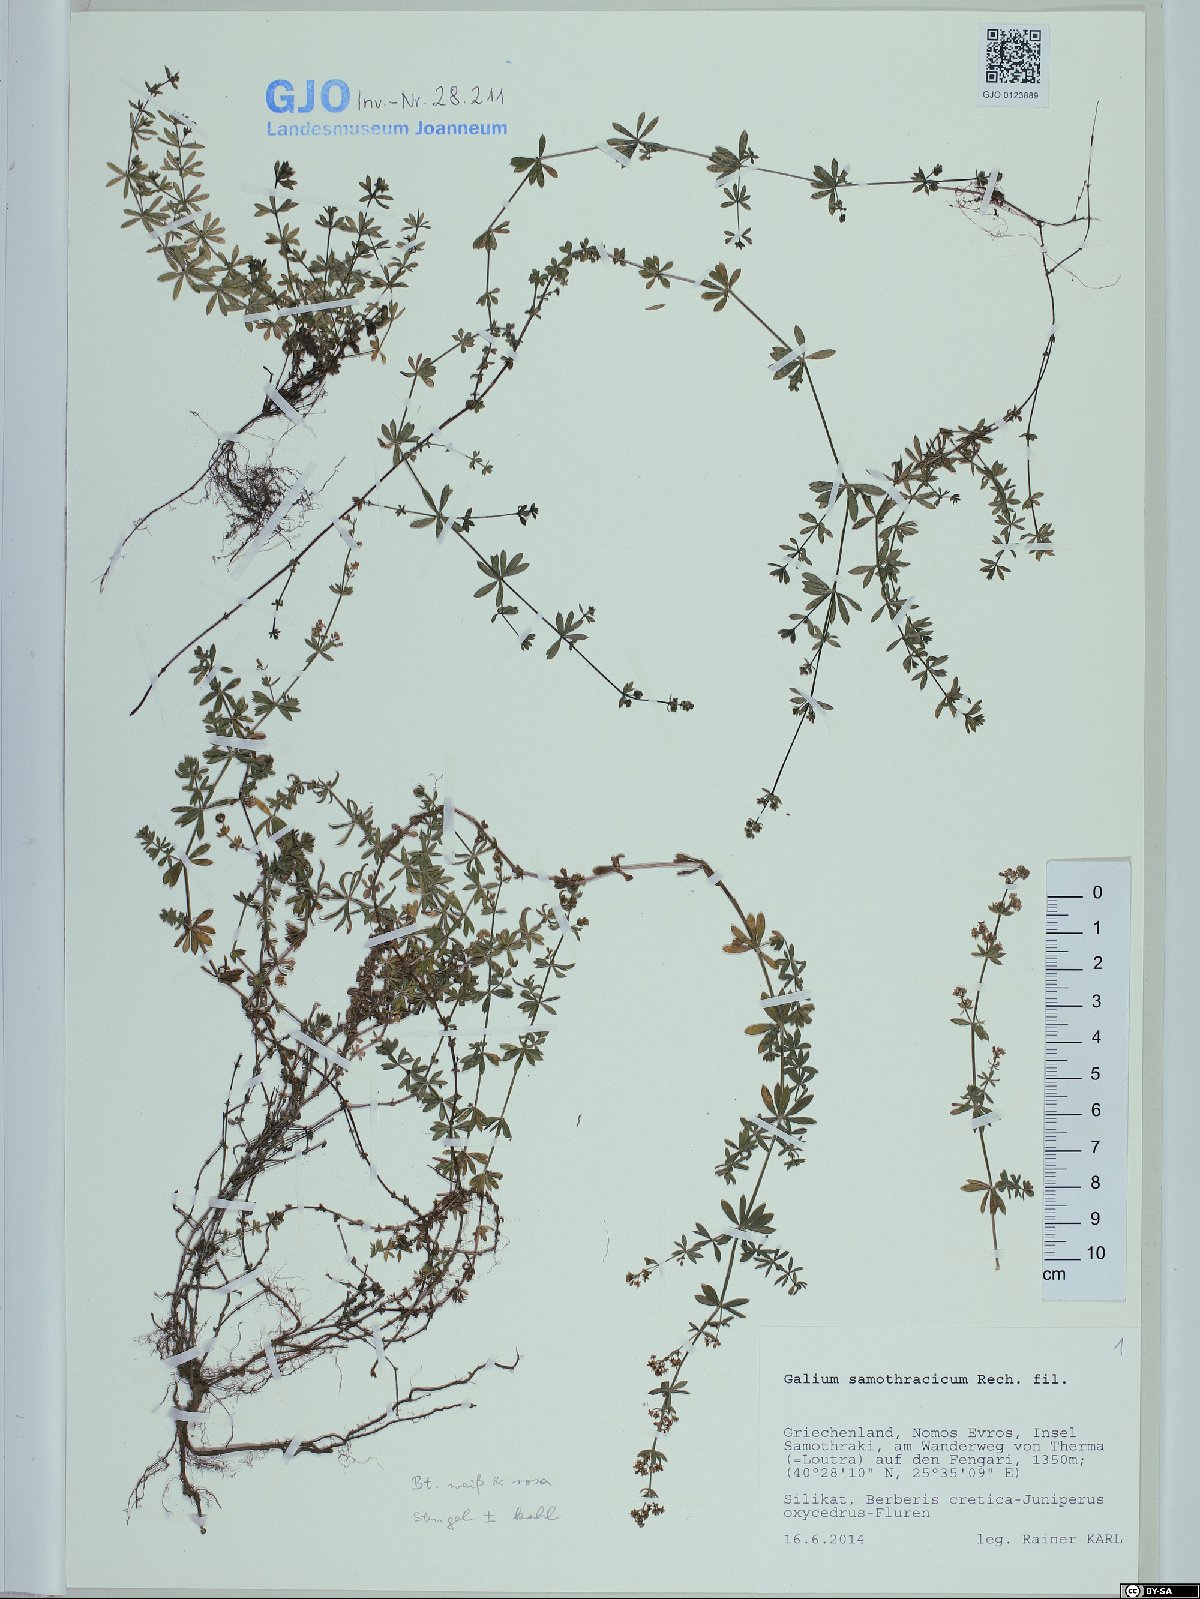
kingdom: Plantae
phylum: Tracheophyta
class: Magnoliopsida
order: Gentianales
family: Rubiaceae
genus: Galium
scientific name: Galium samothracicum
